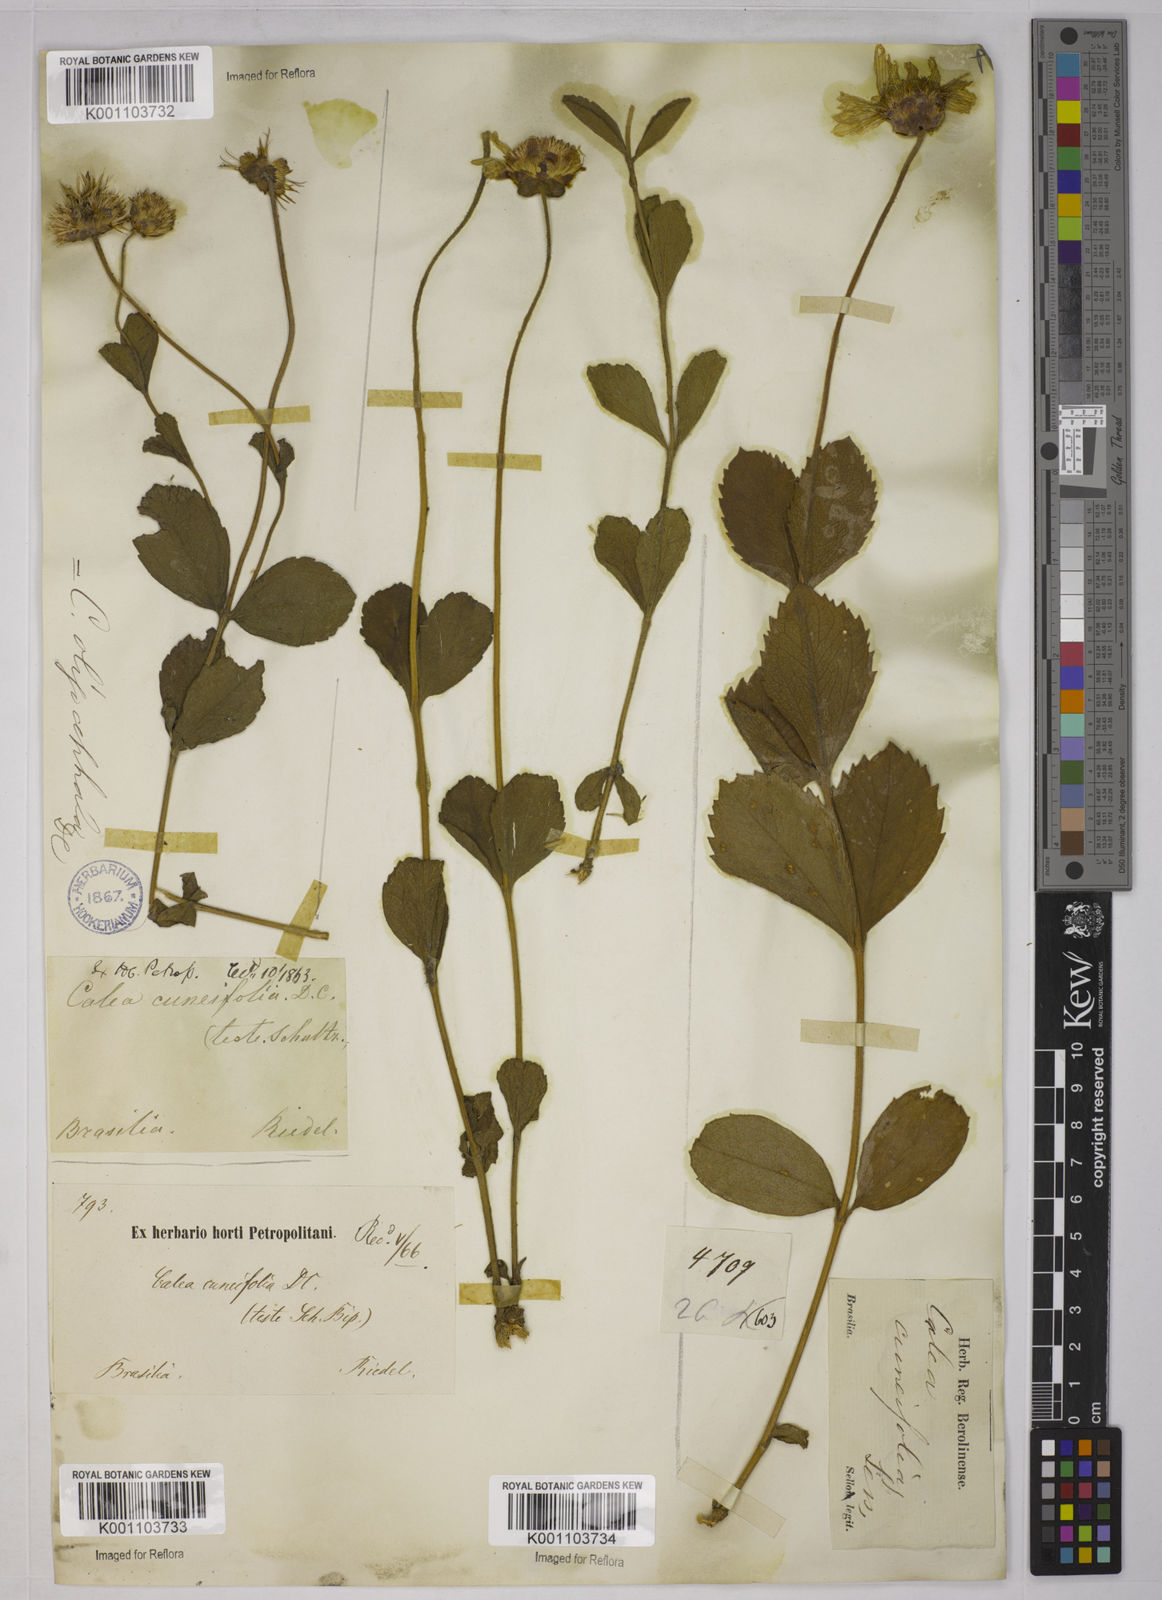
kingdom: Plantae
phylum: Tracheophyta
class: Magnoliopsida
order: Asterales
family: Asteraceae
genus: Calea
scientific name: Calea cuneifolia
